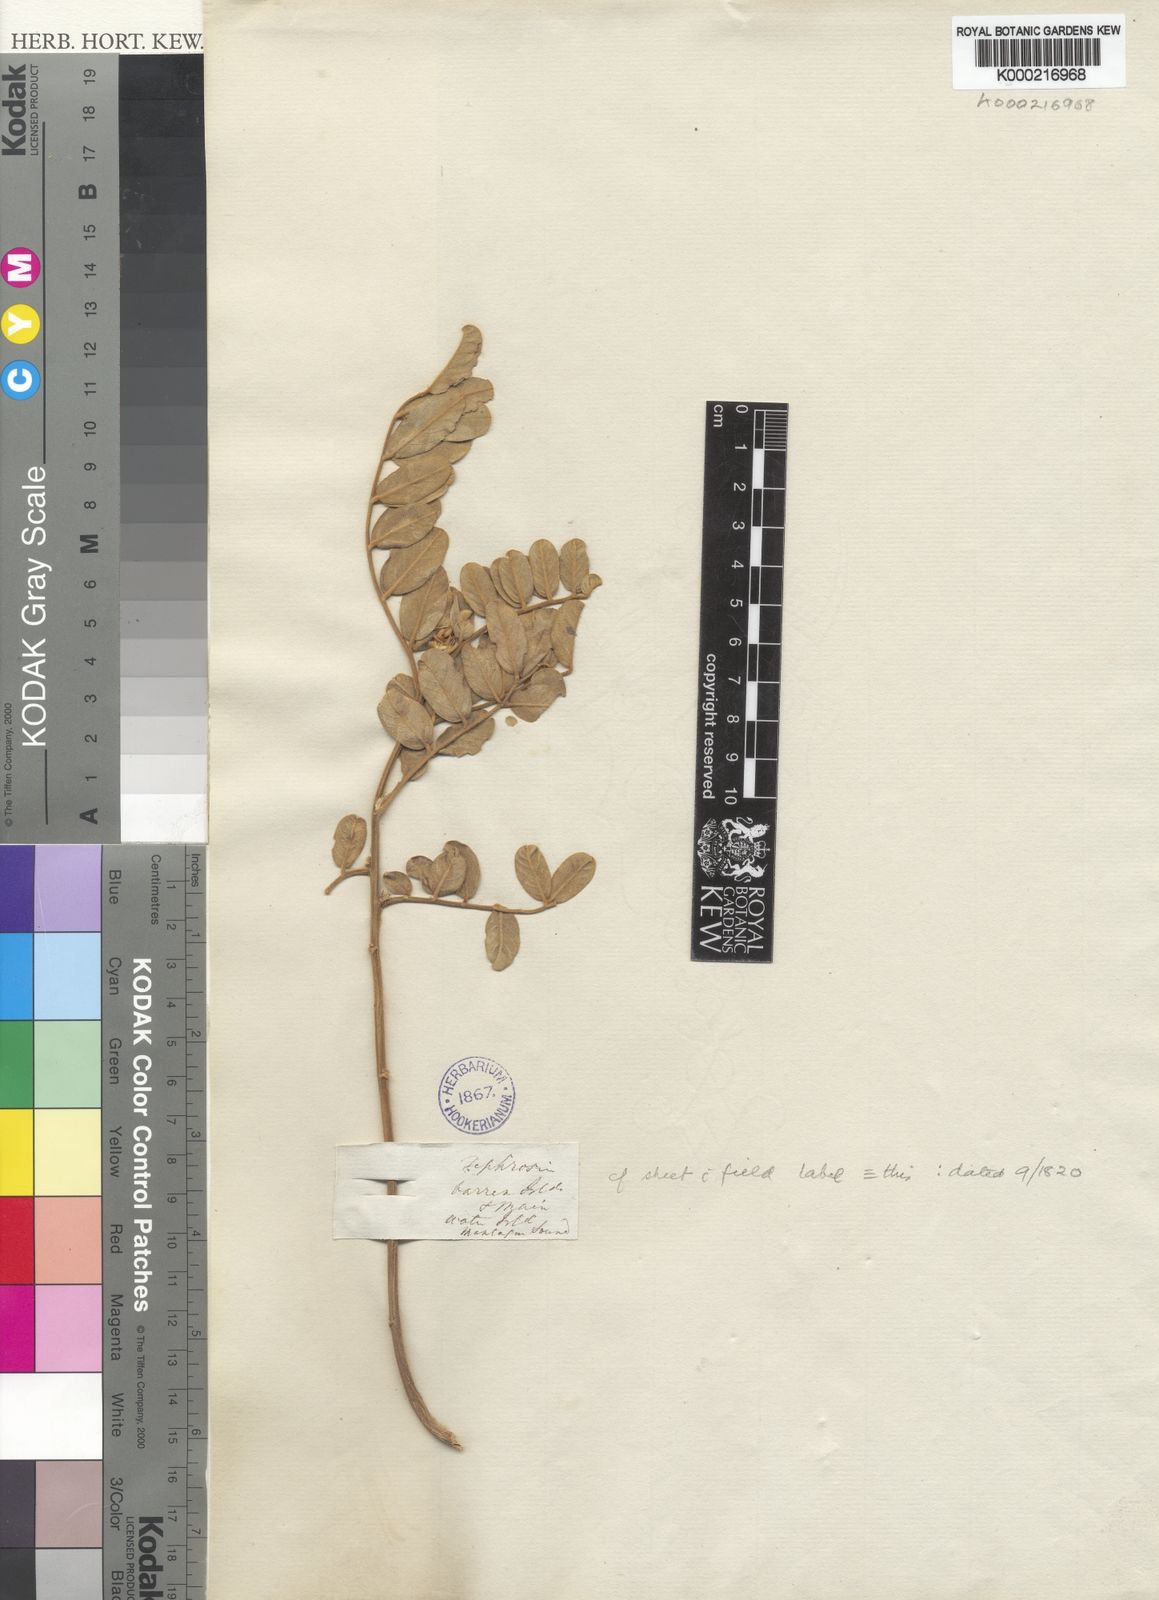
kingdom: Plantae
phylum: Tracheophyta
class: Magnoliopsida
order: Fabales
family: Fabaceae
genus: Tephrosia
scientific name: Tephrosia
